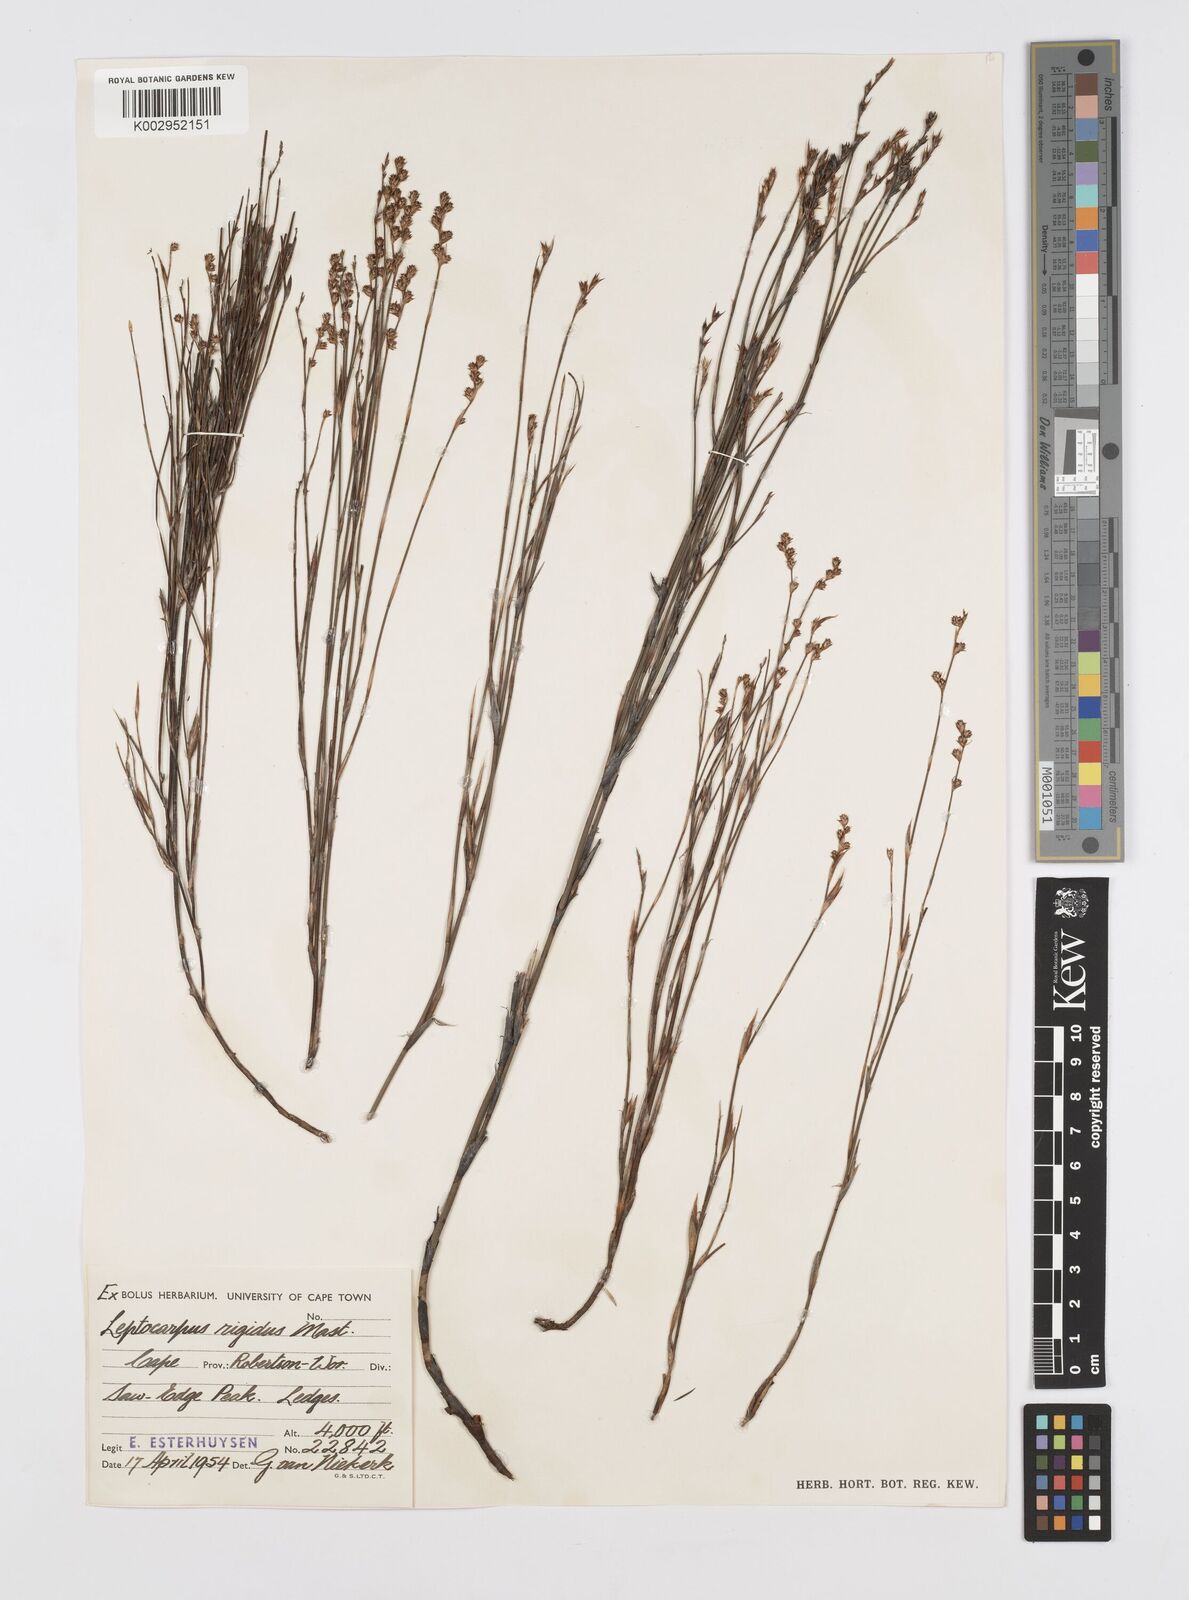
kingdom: Plantae
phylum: Tracheophyta
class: Liliopsida
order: Poales
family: Restionaceae
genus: Restio
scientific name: Restio rigidus
